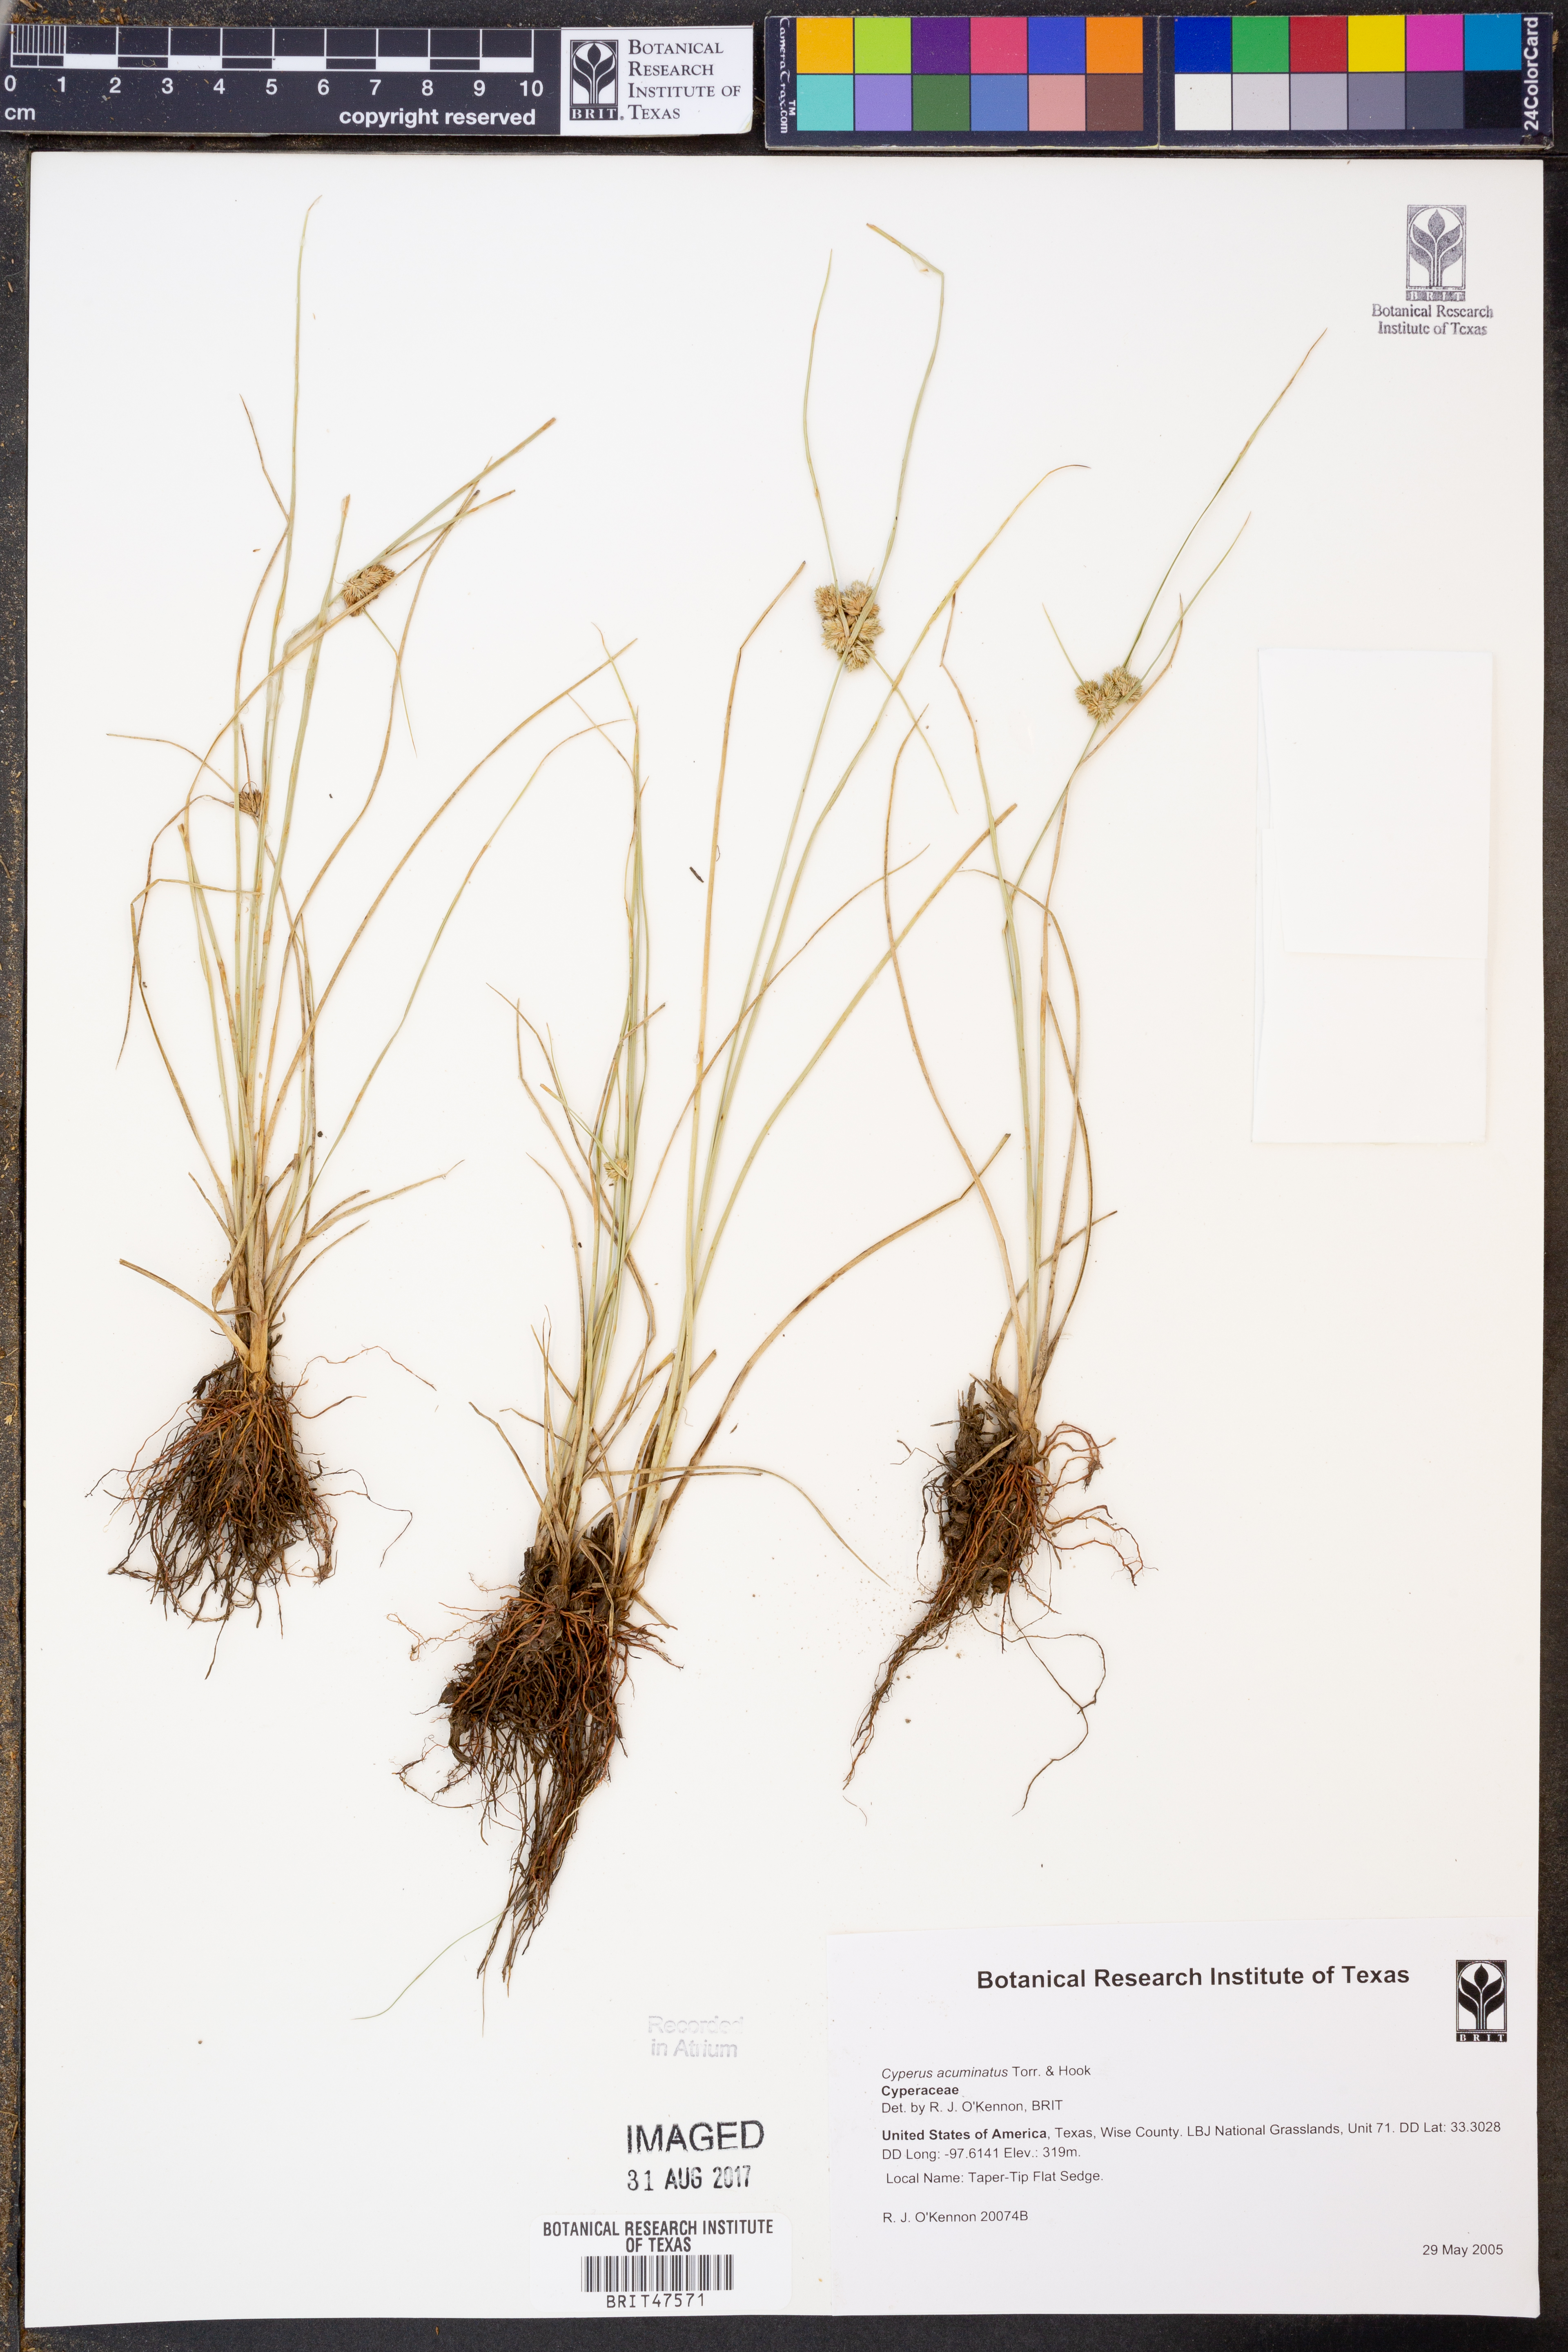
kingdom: Plantae
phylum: Tracheophyta
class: Liliopsida
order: Poales
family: Cyperaceae
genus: Cyperus
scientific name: Cyperus acuminatus
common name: Short-pointed cyperus
